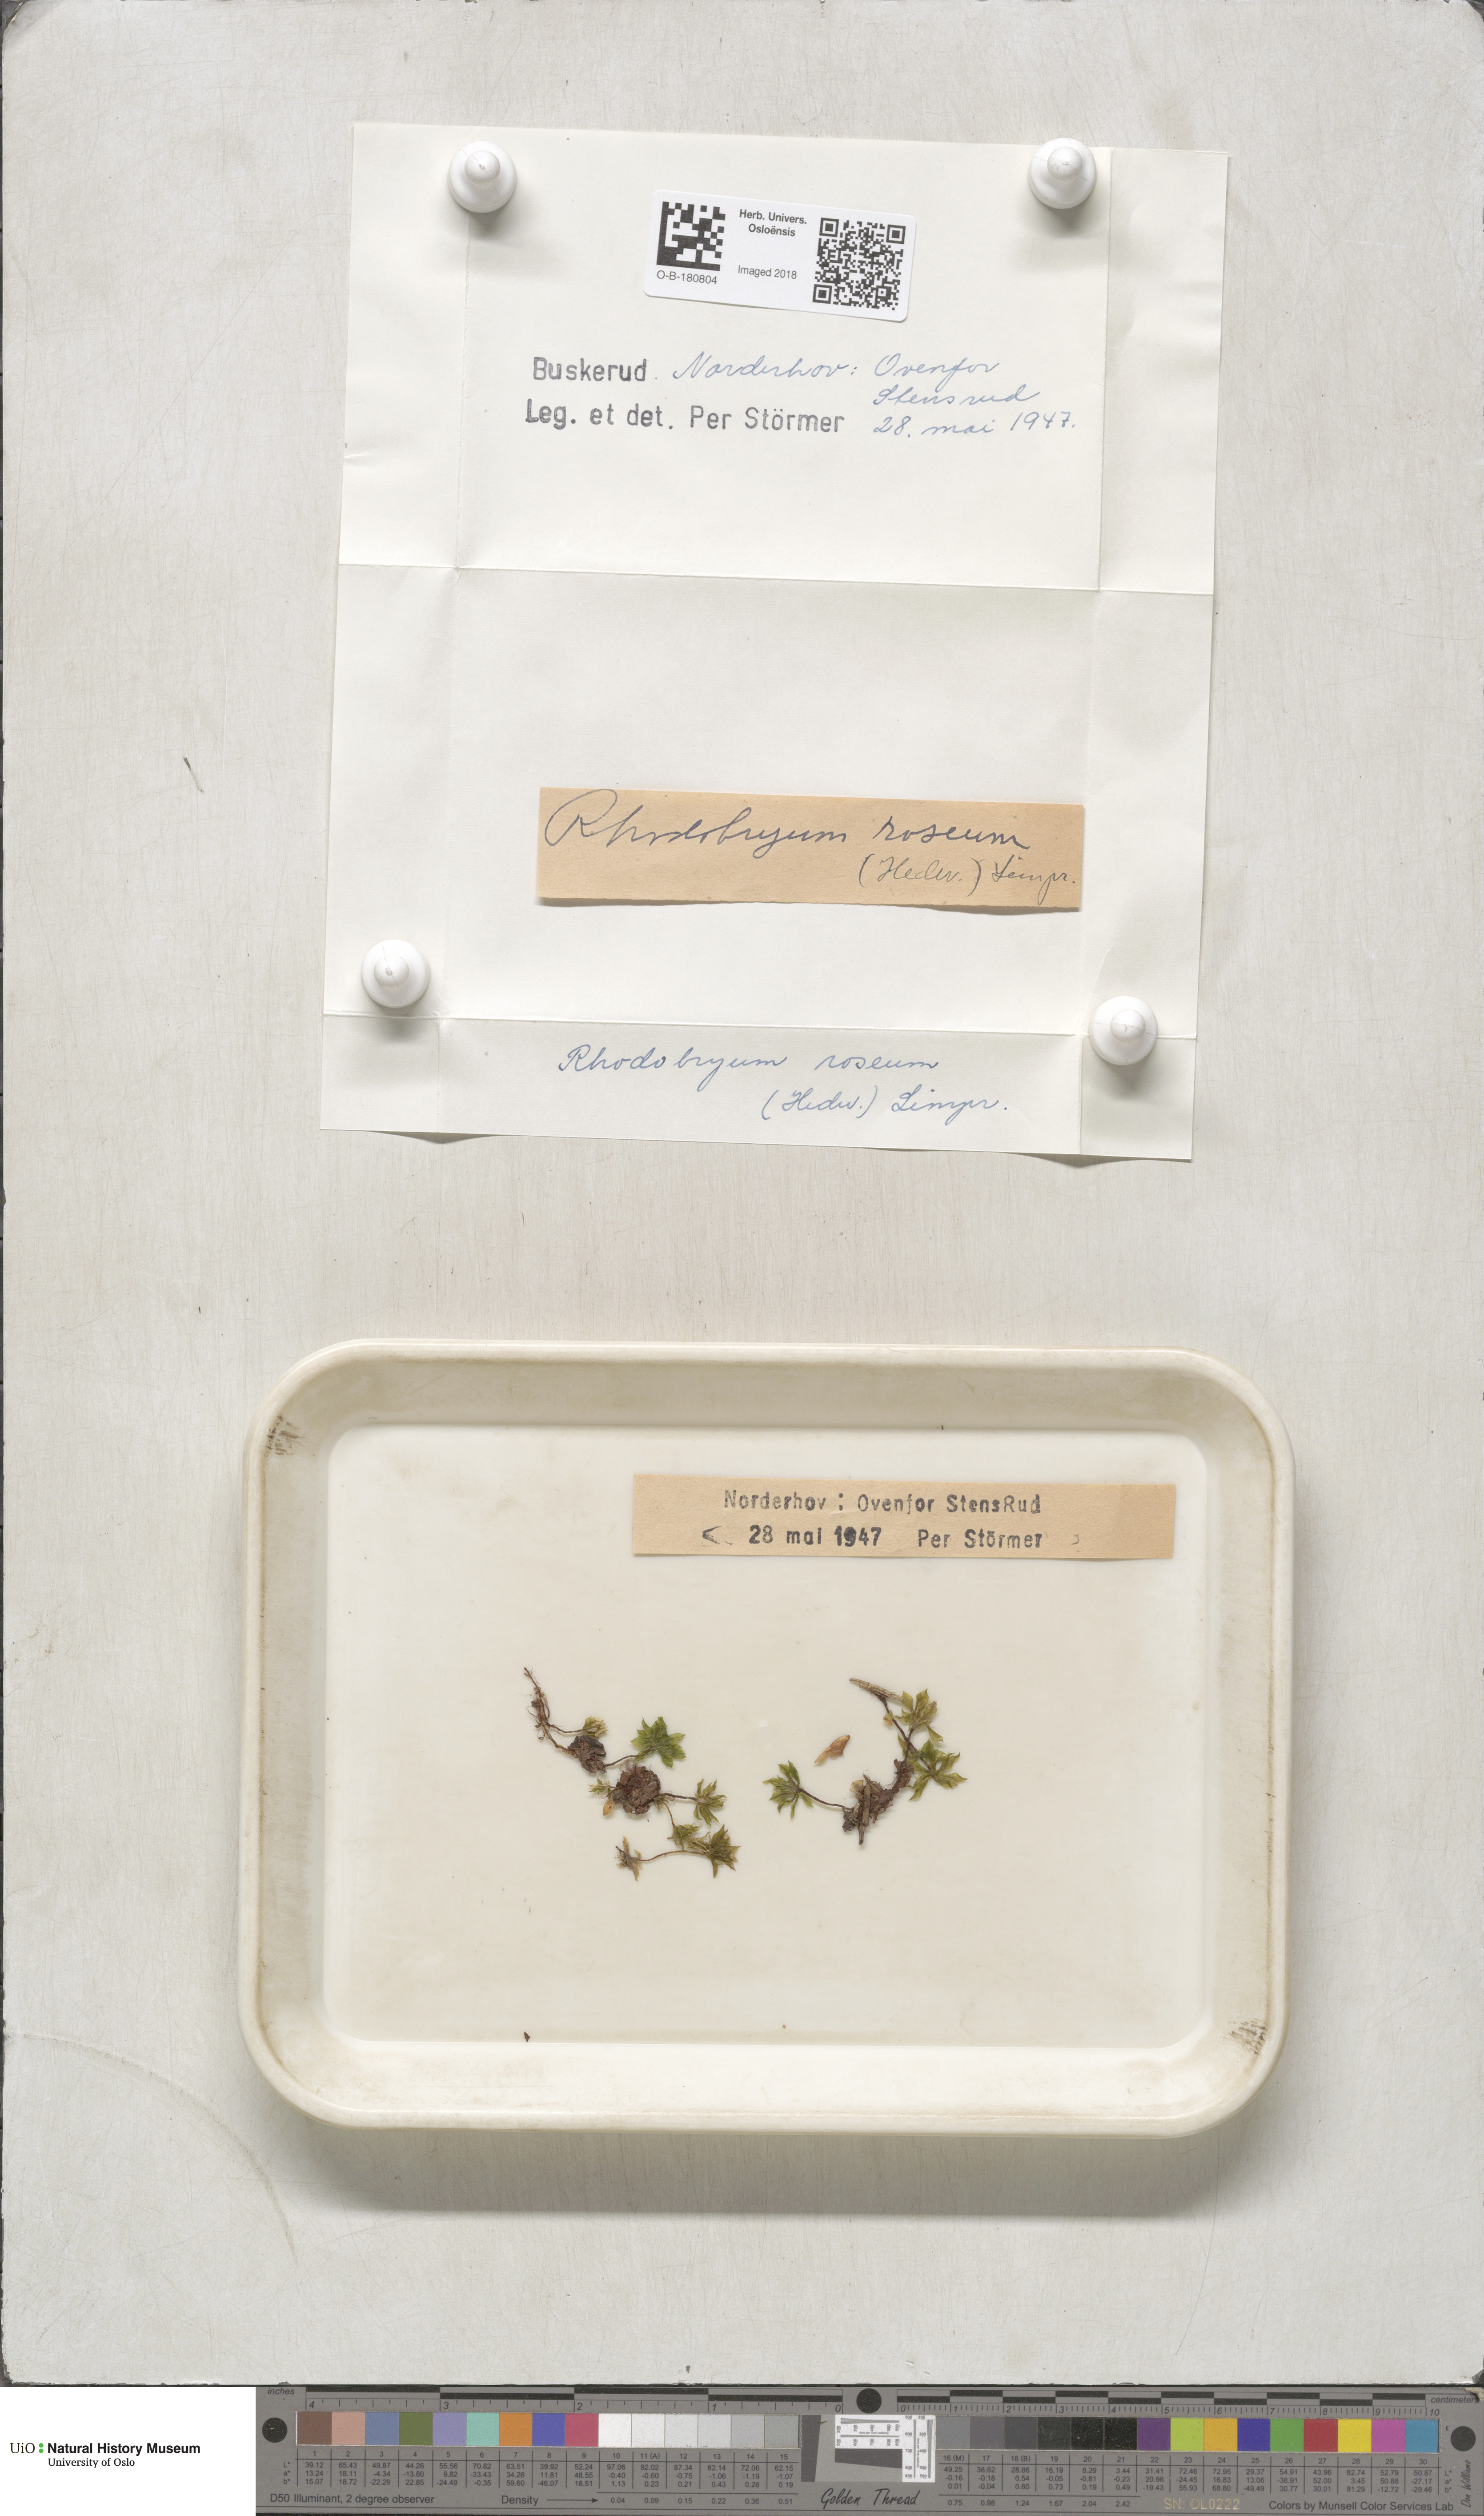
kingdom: Plantae
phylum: Bryophyta
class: Bryopsida
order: Bryales
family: Bryaceae
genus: Rhodobryum
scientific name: Rhodobryum roseum
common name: Rose-moss
